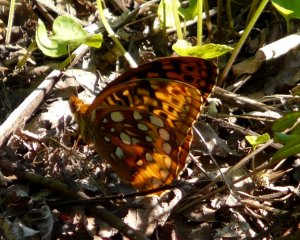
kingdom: Animalia
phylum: Arthropoda
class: Insecta
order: Lepidoptera
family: Nymphalidae
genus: Speyeria
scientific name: Speyeria cybele
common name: Great Spangled Fritillary
